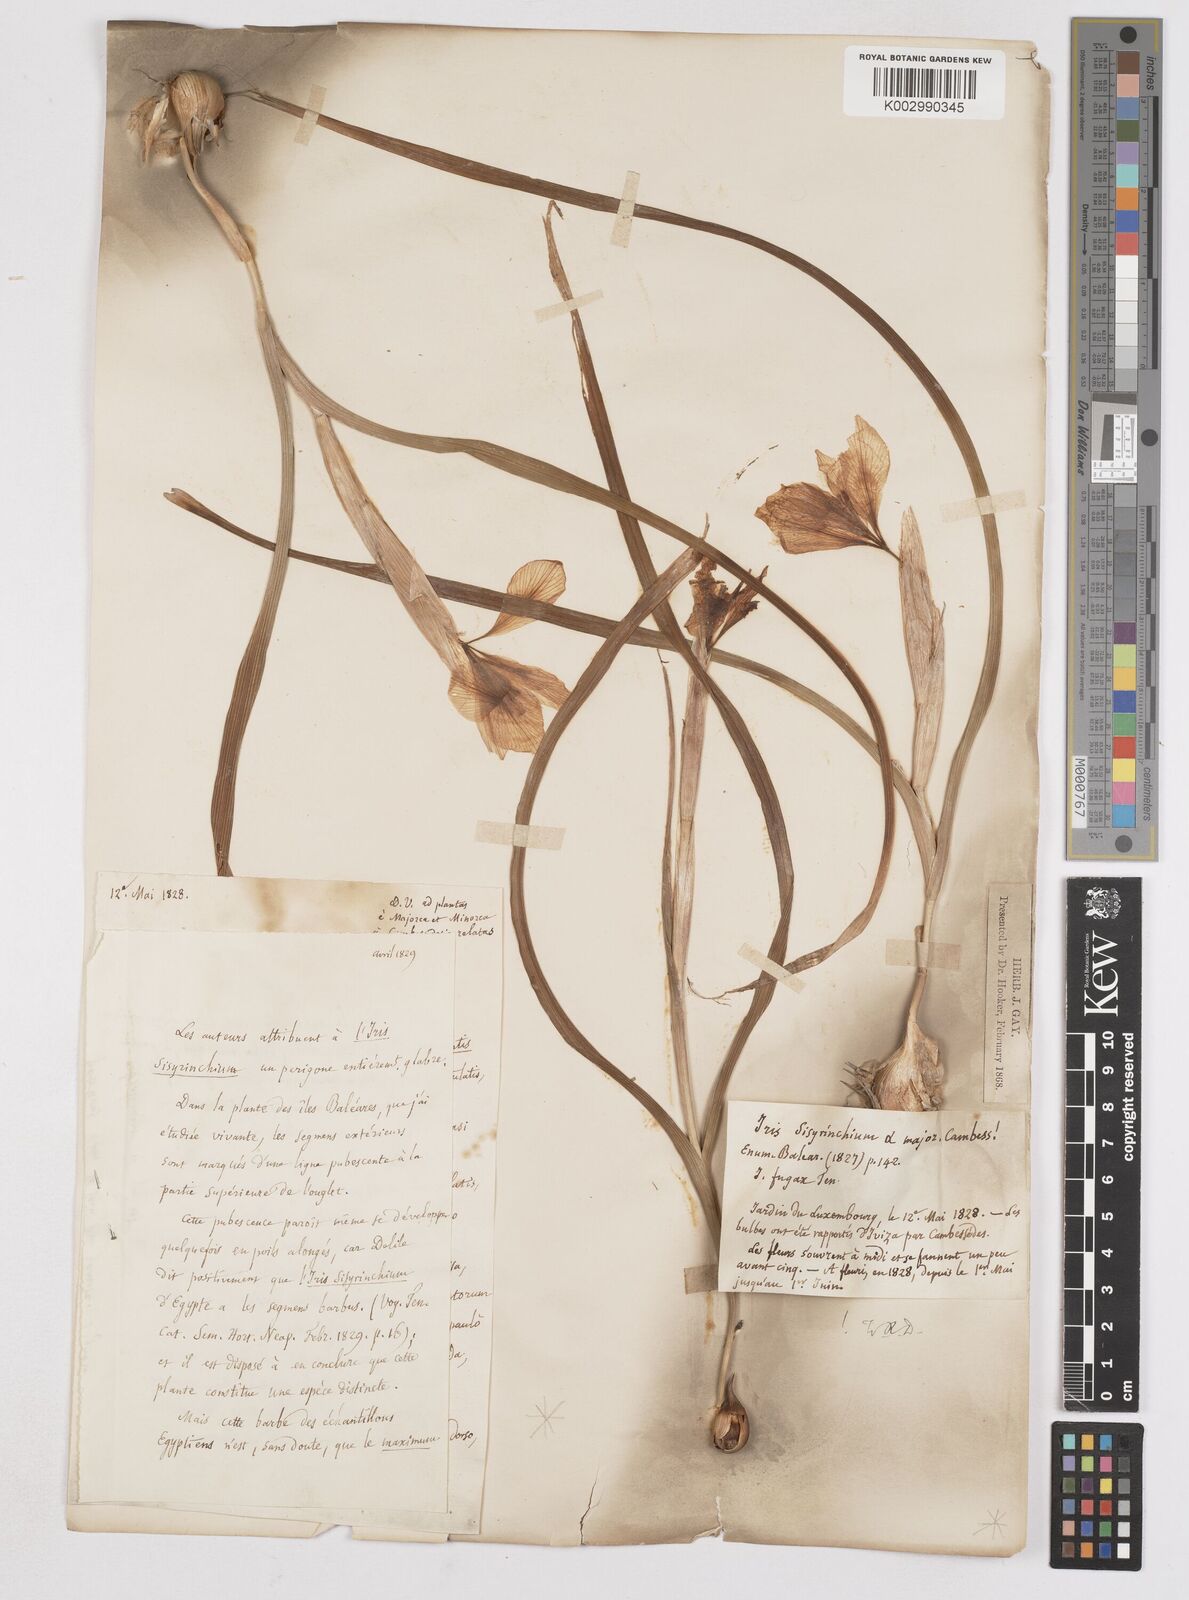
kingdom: Plantae
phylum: Tracheophyta
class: Liliopsida
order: Asparagales
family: Iridaceae
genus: Moraea
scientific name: Moraea sisyrinchium
